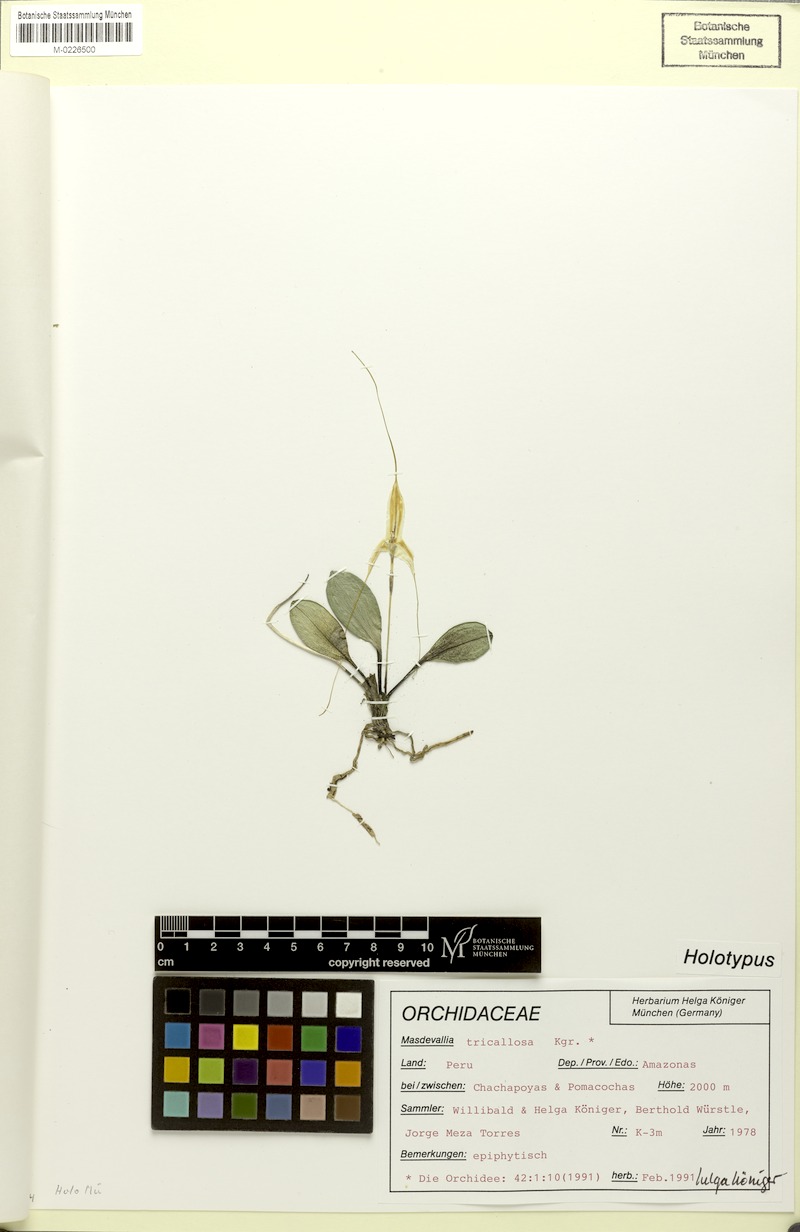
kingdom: Plantae
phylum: Tracheophyta
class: Liliopsida
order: Asparagales
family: Orchidaceae
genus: Masdevallia
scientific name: Masdevallia tricallosa
